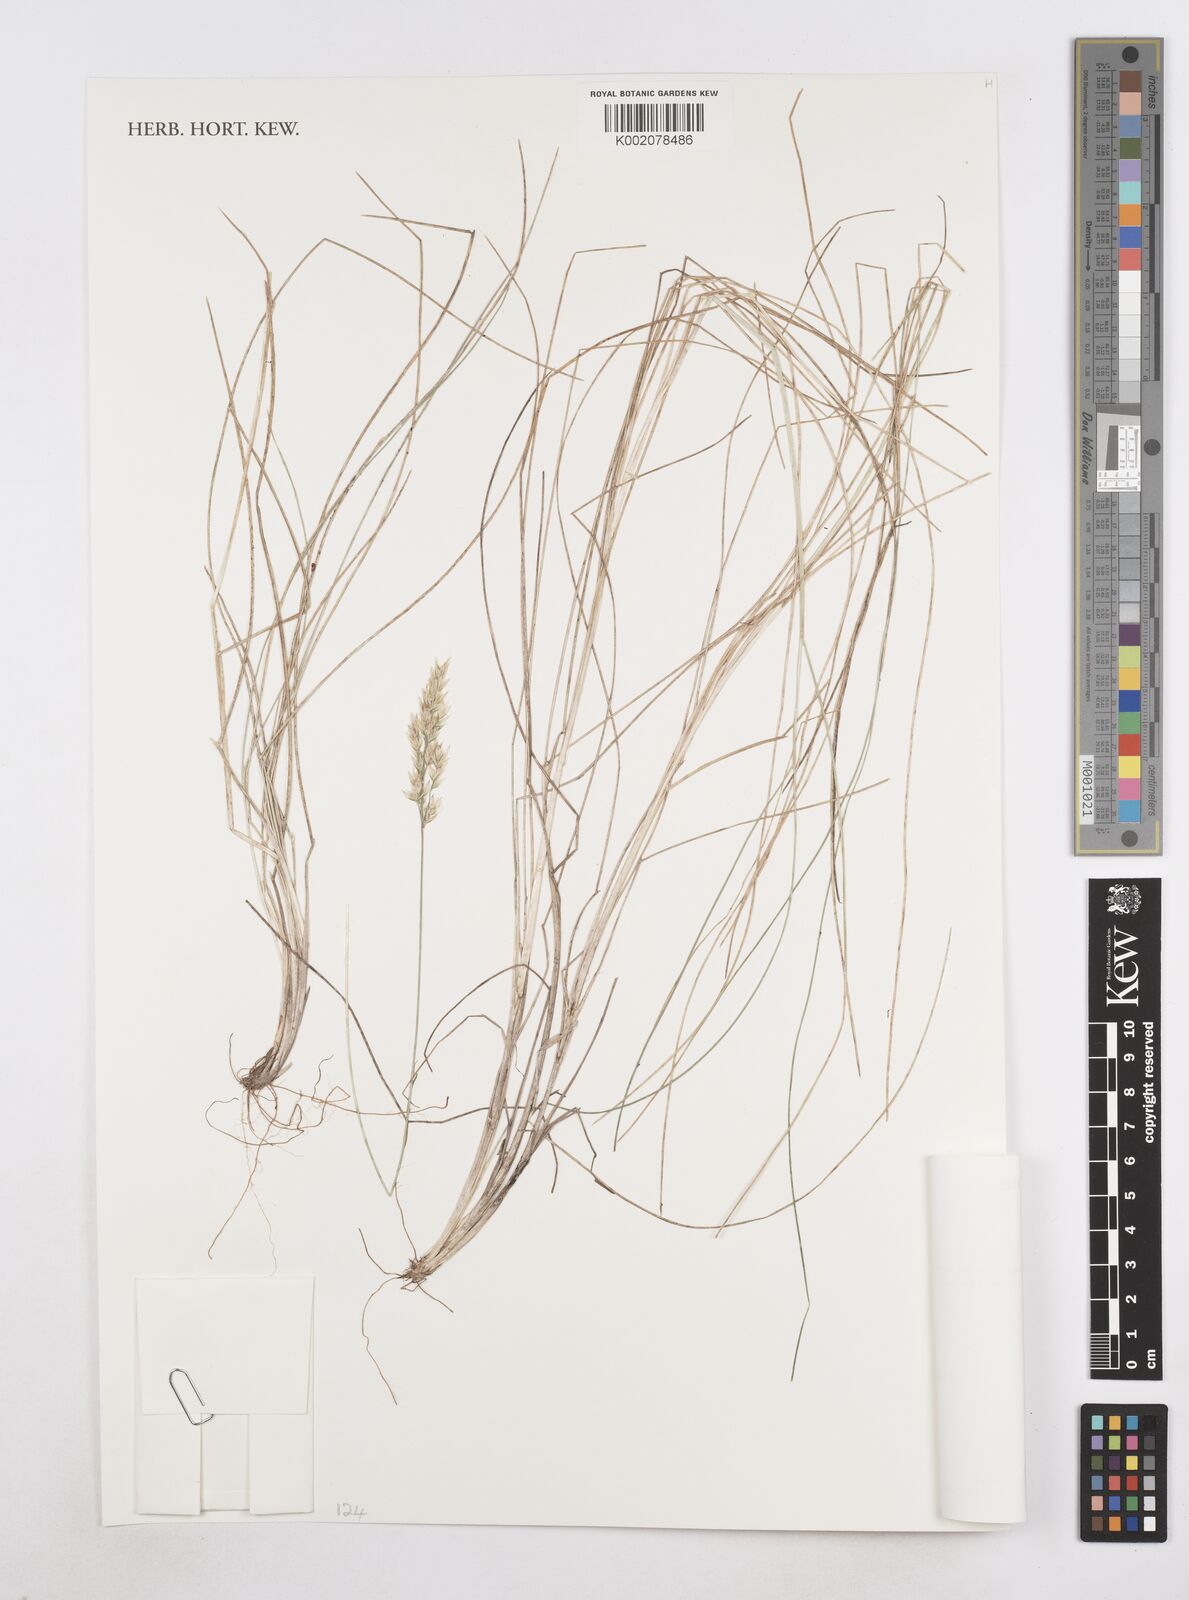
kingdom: Plantae
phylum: Tracheophyta
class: Liliopsida
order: Poales
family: Poaceae
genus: Poa
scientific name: Poa denudata
